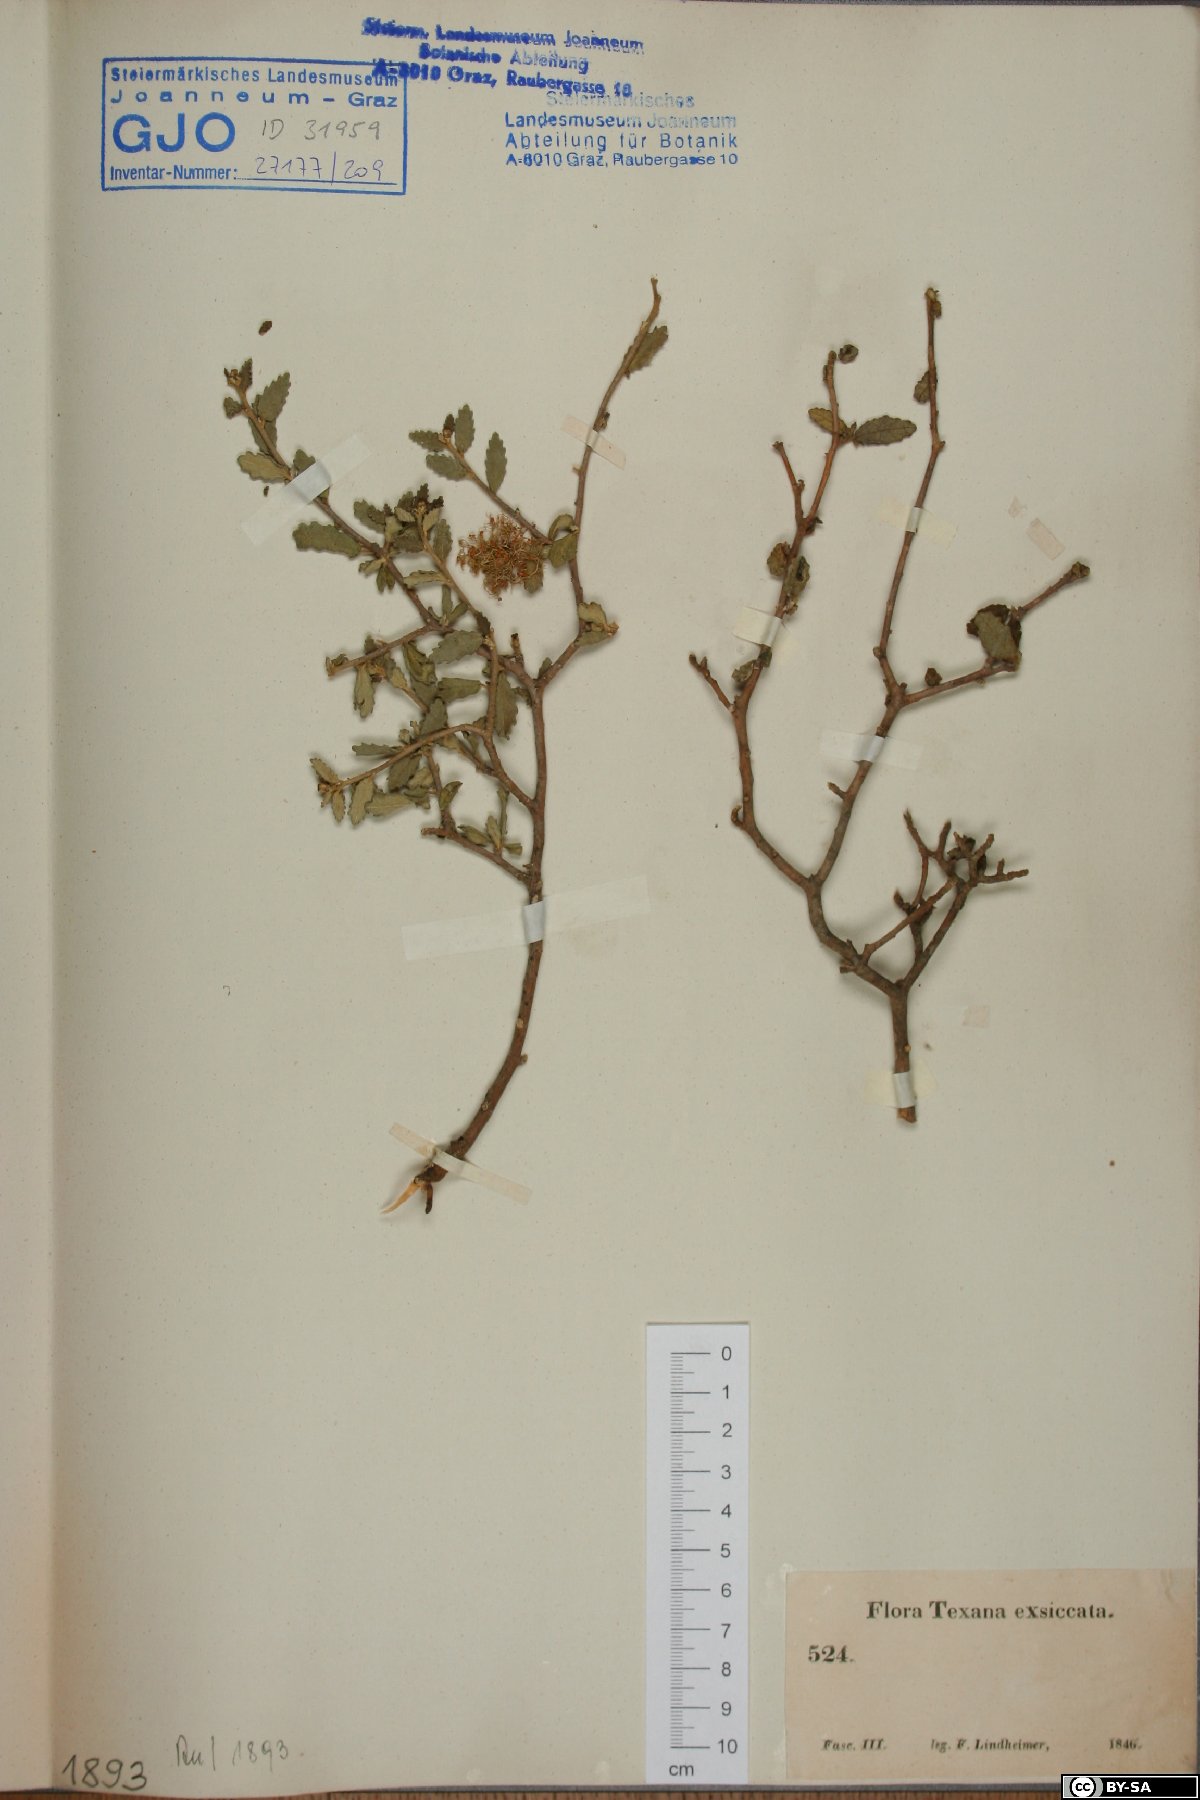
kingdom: Plantae
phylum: Tracheophyta
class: Magnoliopsida
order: Fagales
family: Fagaceae
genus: Quercus
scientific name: Quercus
